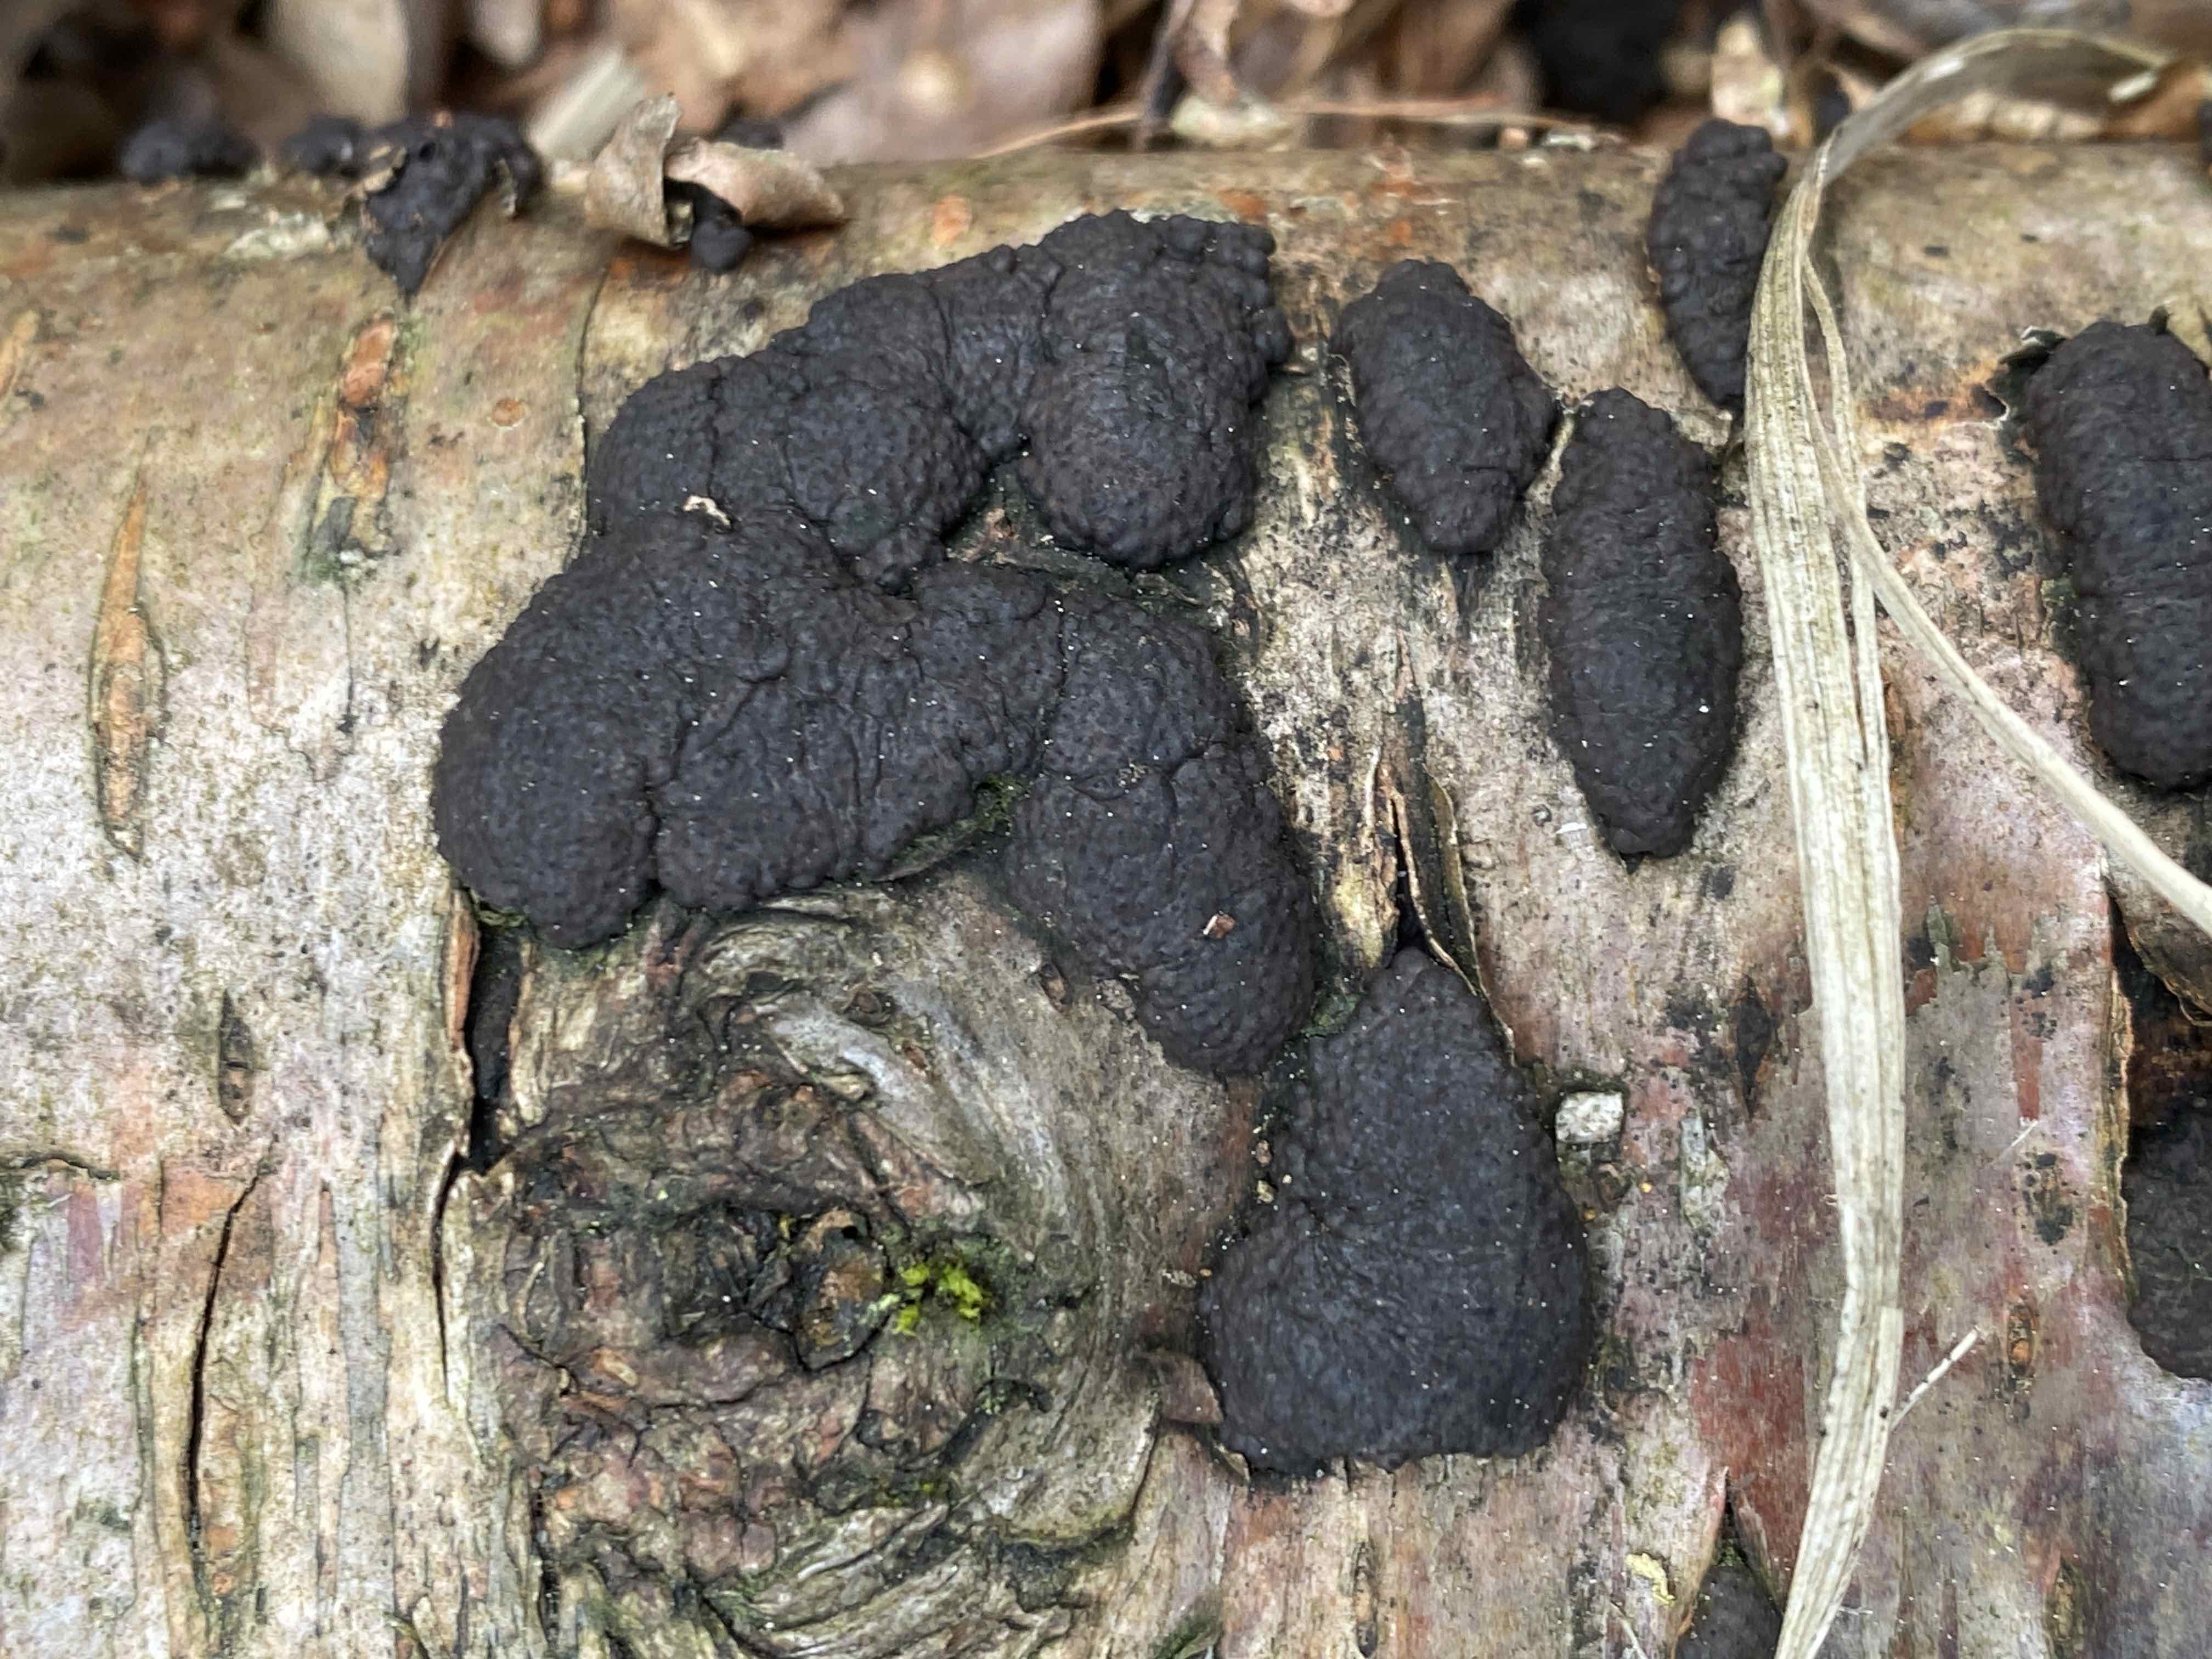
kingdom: Fungi
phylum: Ascomycota
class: Sordariomycetes
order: Xylariales
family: Hypoxylaceae
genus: Jackrogersella
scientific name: Jackrogersella multiformis
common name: foranderlig kulbær
